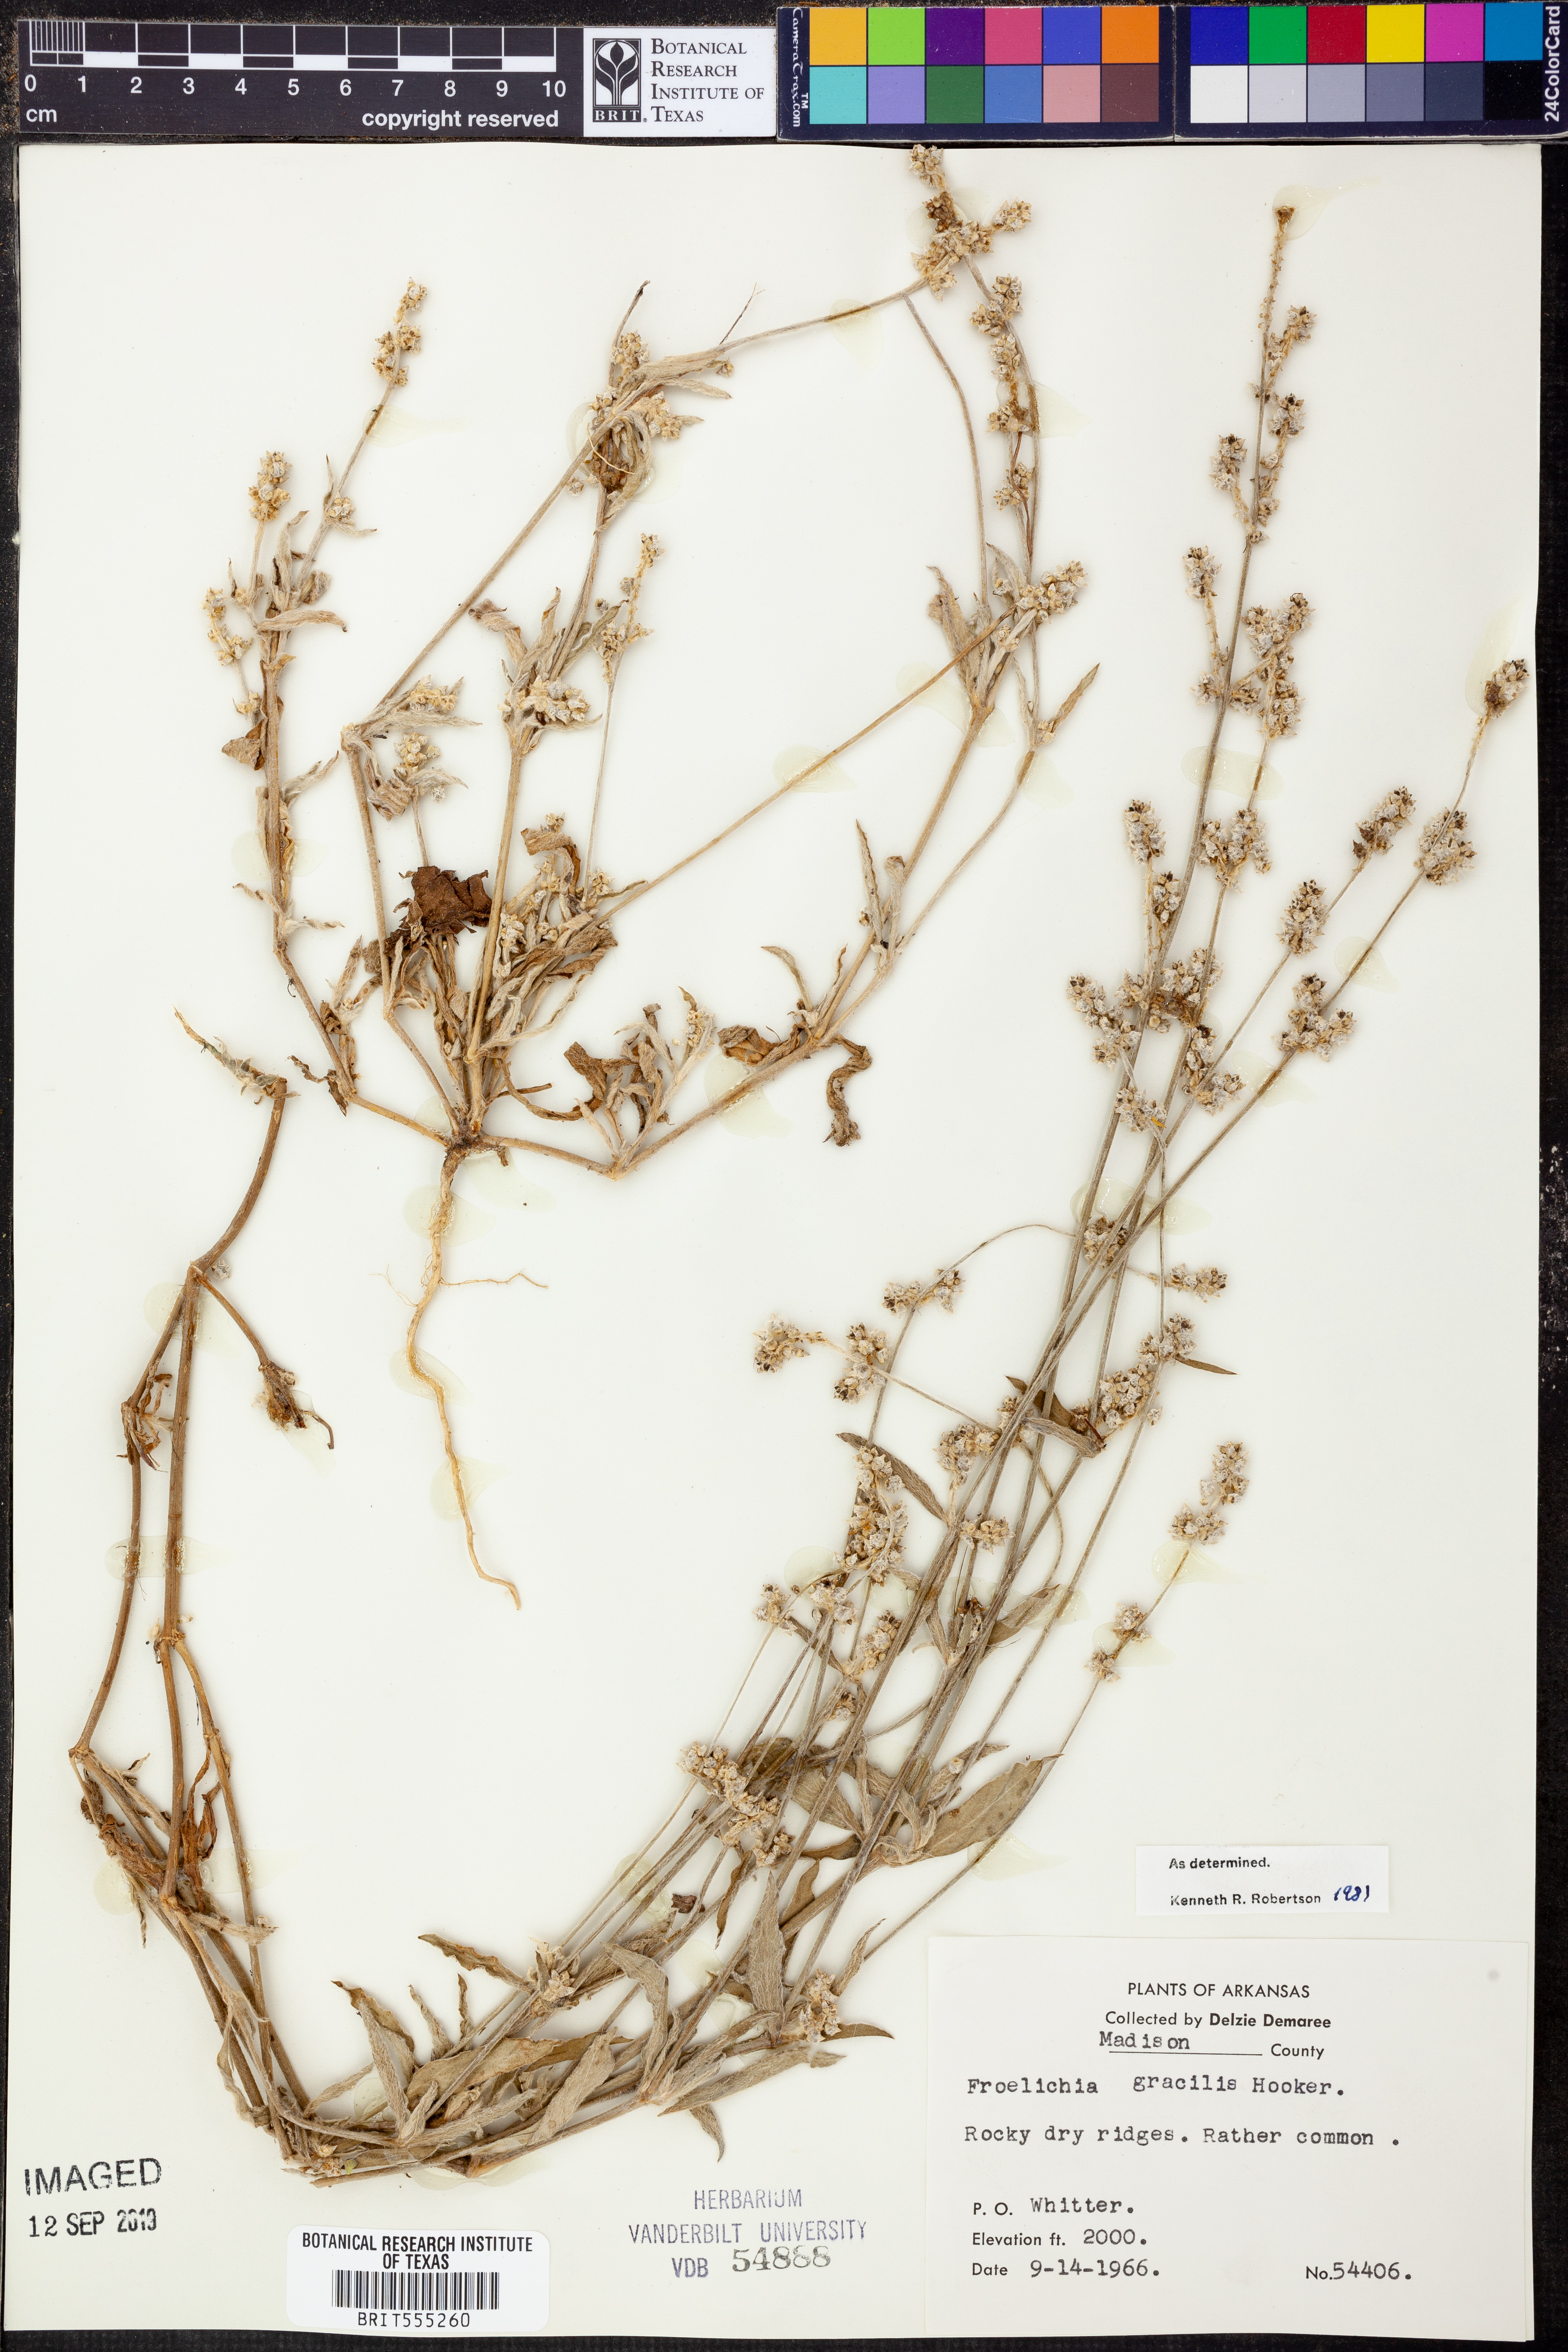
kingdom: Plantae
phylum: Tracheophyta
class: Magnoliopsida
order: Caryophyllales
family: Amaranthaceae
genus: Froelichia
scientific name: Froelichia gracilis
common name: Slender cottonweed
